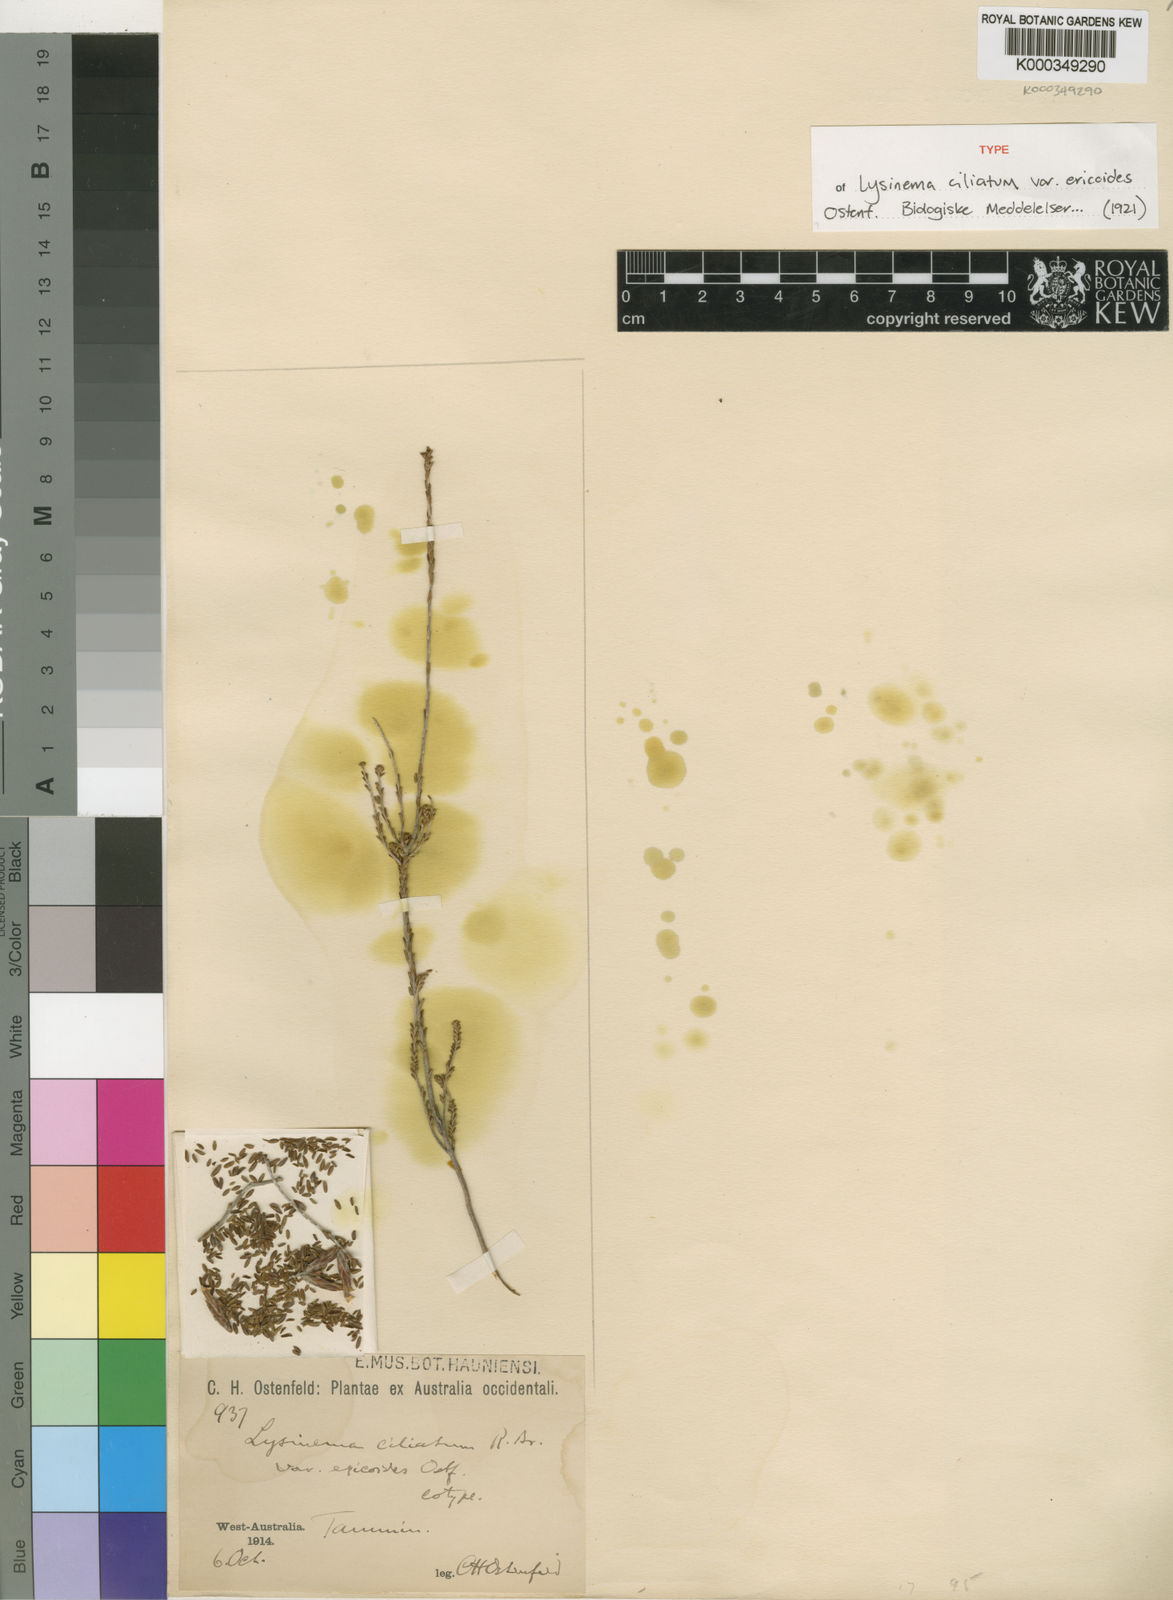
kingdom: Plantae
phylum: Tracheophyta
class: Magnoliopsida
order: Ericales
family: Ericaceae
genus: Lysinema
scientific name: Lysinema pentapetalum
